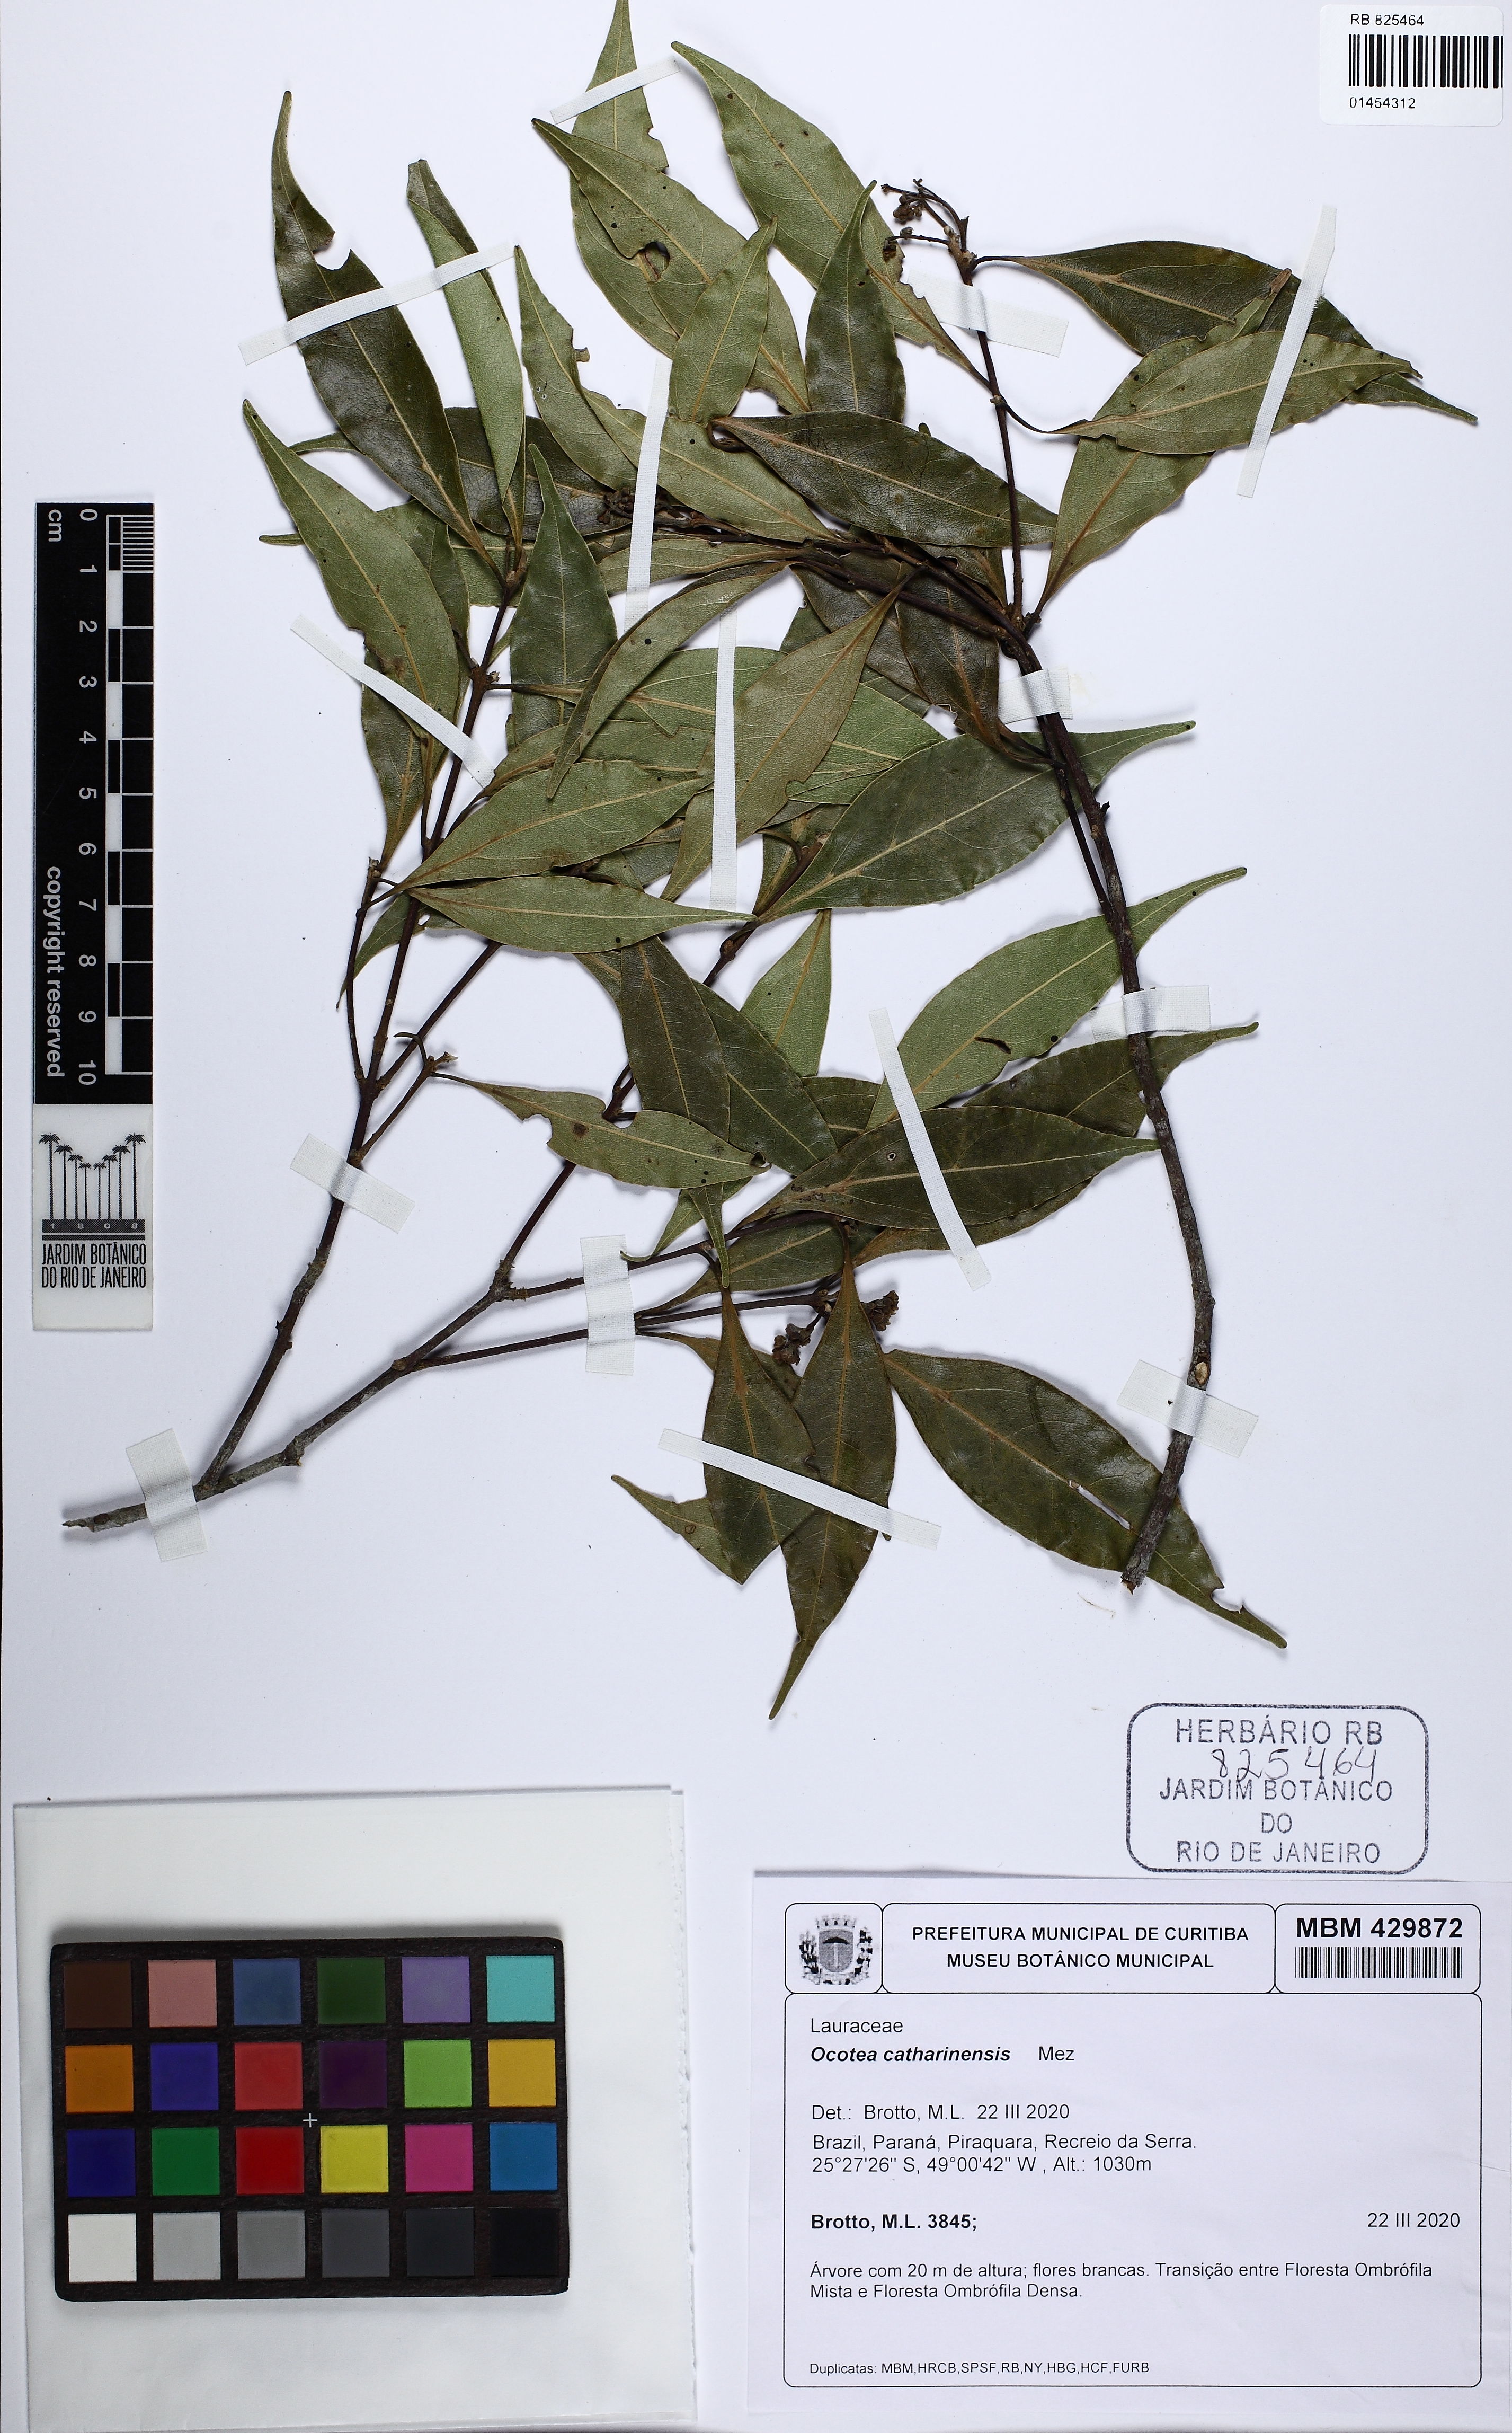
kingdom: Plantae
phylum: Tracheophyta
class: Magnoliopsida
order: Laurales
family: Lauraceae
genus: Ocotea
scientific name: Ocotea catharinensis
